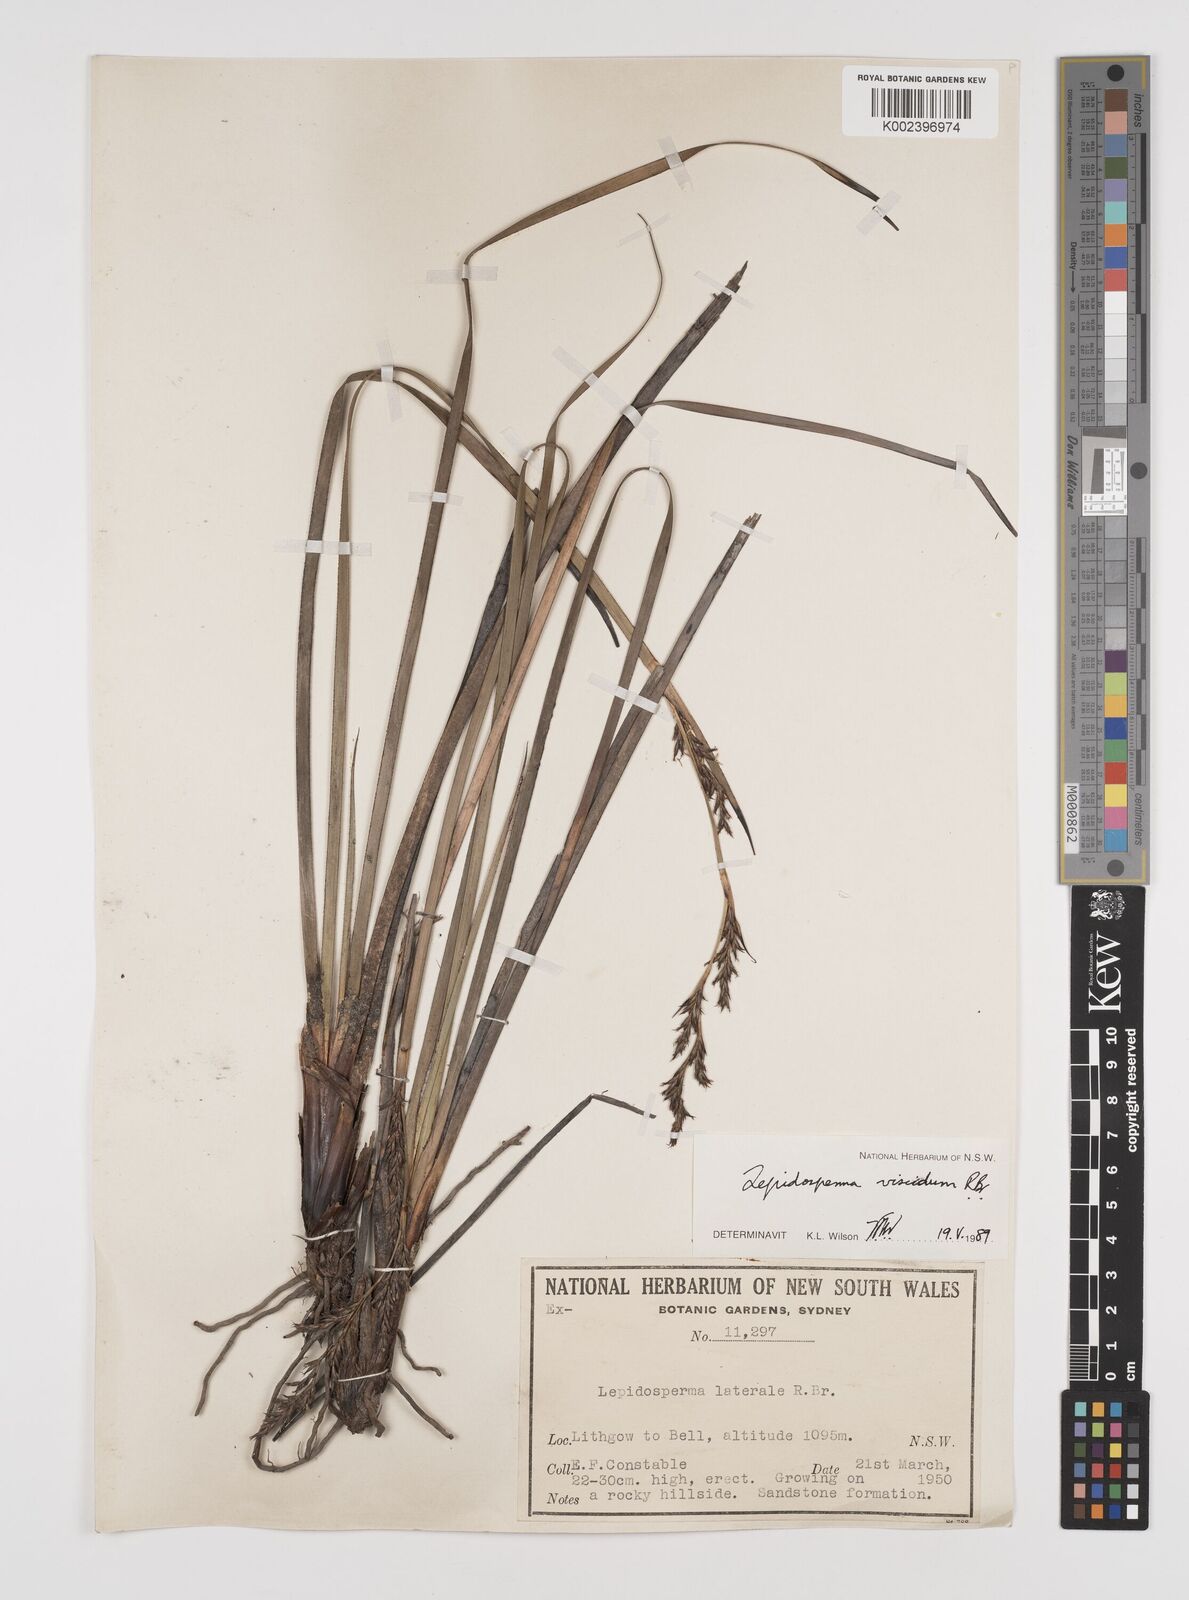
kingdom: Plantae
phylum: Tracheophyta
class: Liliopsida
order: Poales
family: Cyperaceae
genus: Lepidosperma
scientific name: Lepidosperma viscidum
